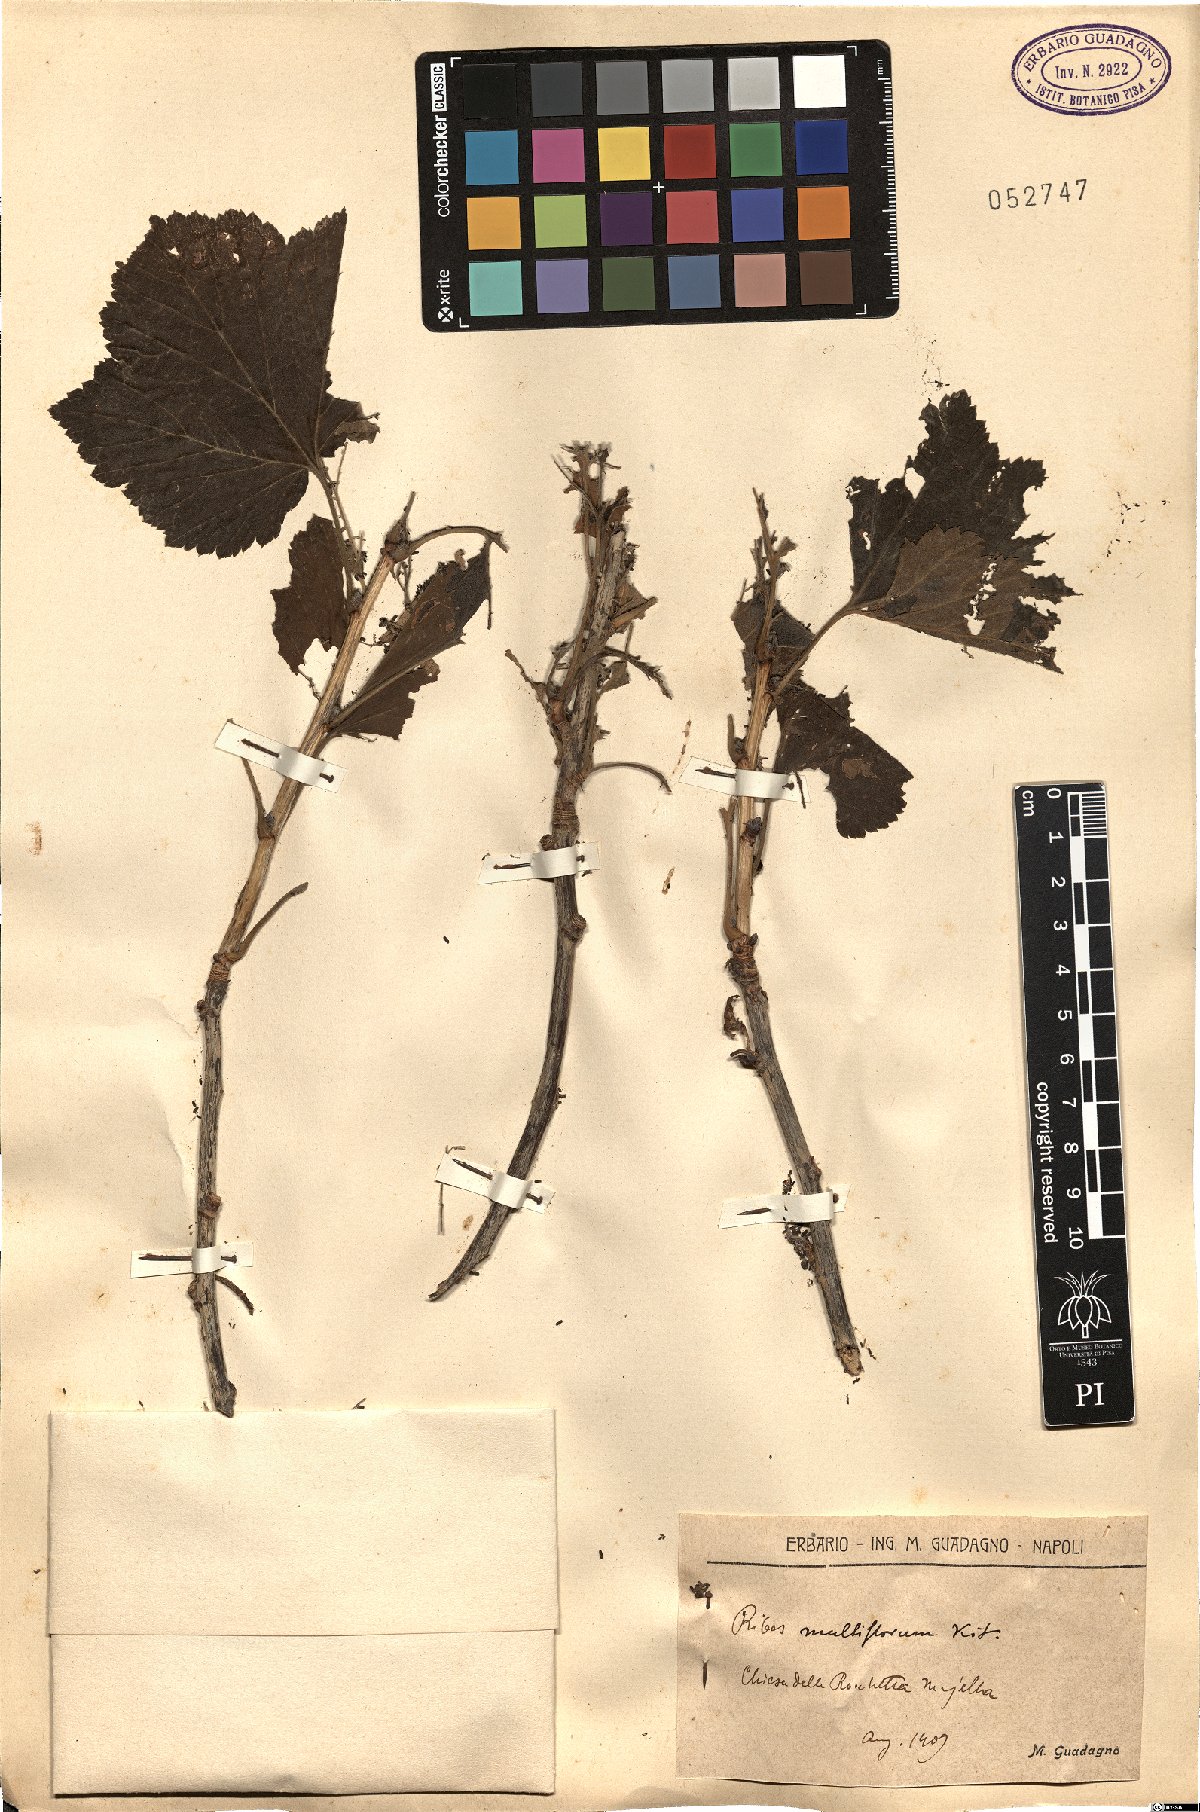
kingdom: Plantae
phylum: Tracheophyta
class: Magnoliopsida
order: Saxifragales
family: Grossulariaceae
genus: Ribes
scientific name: Ribes multiflorum
